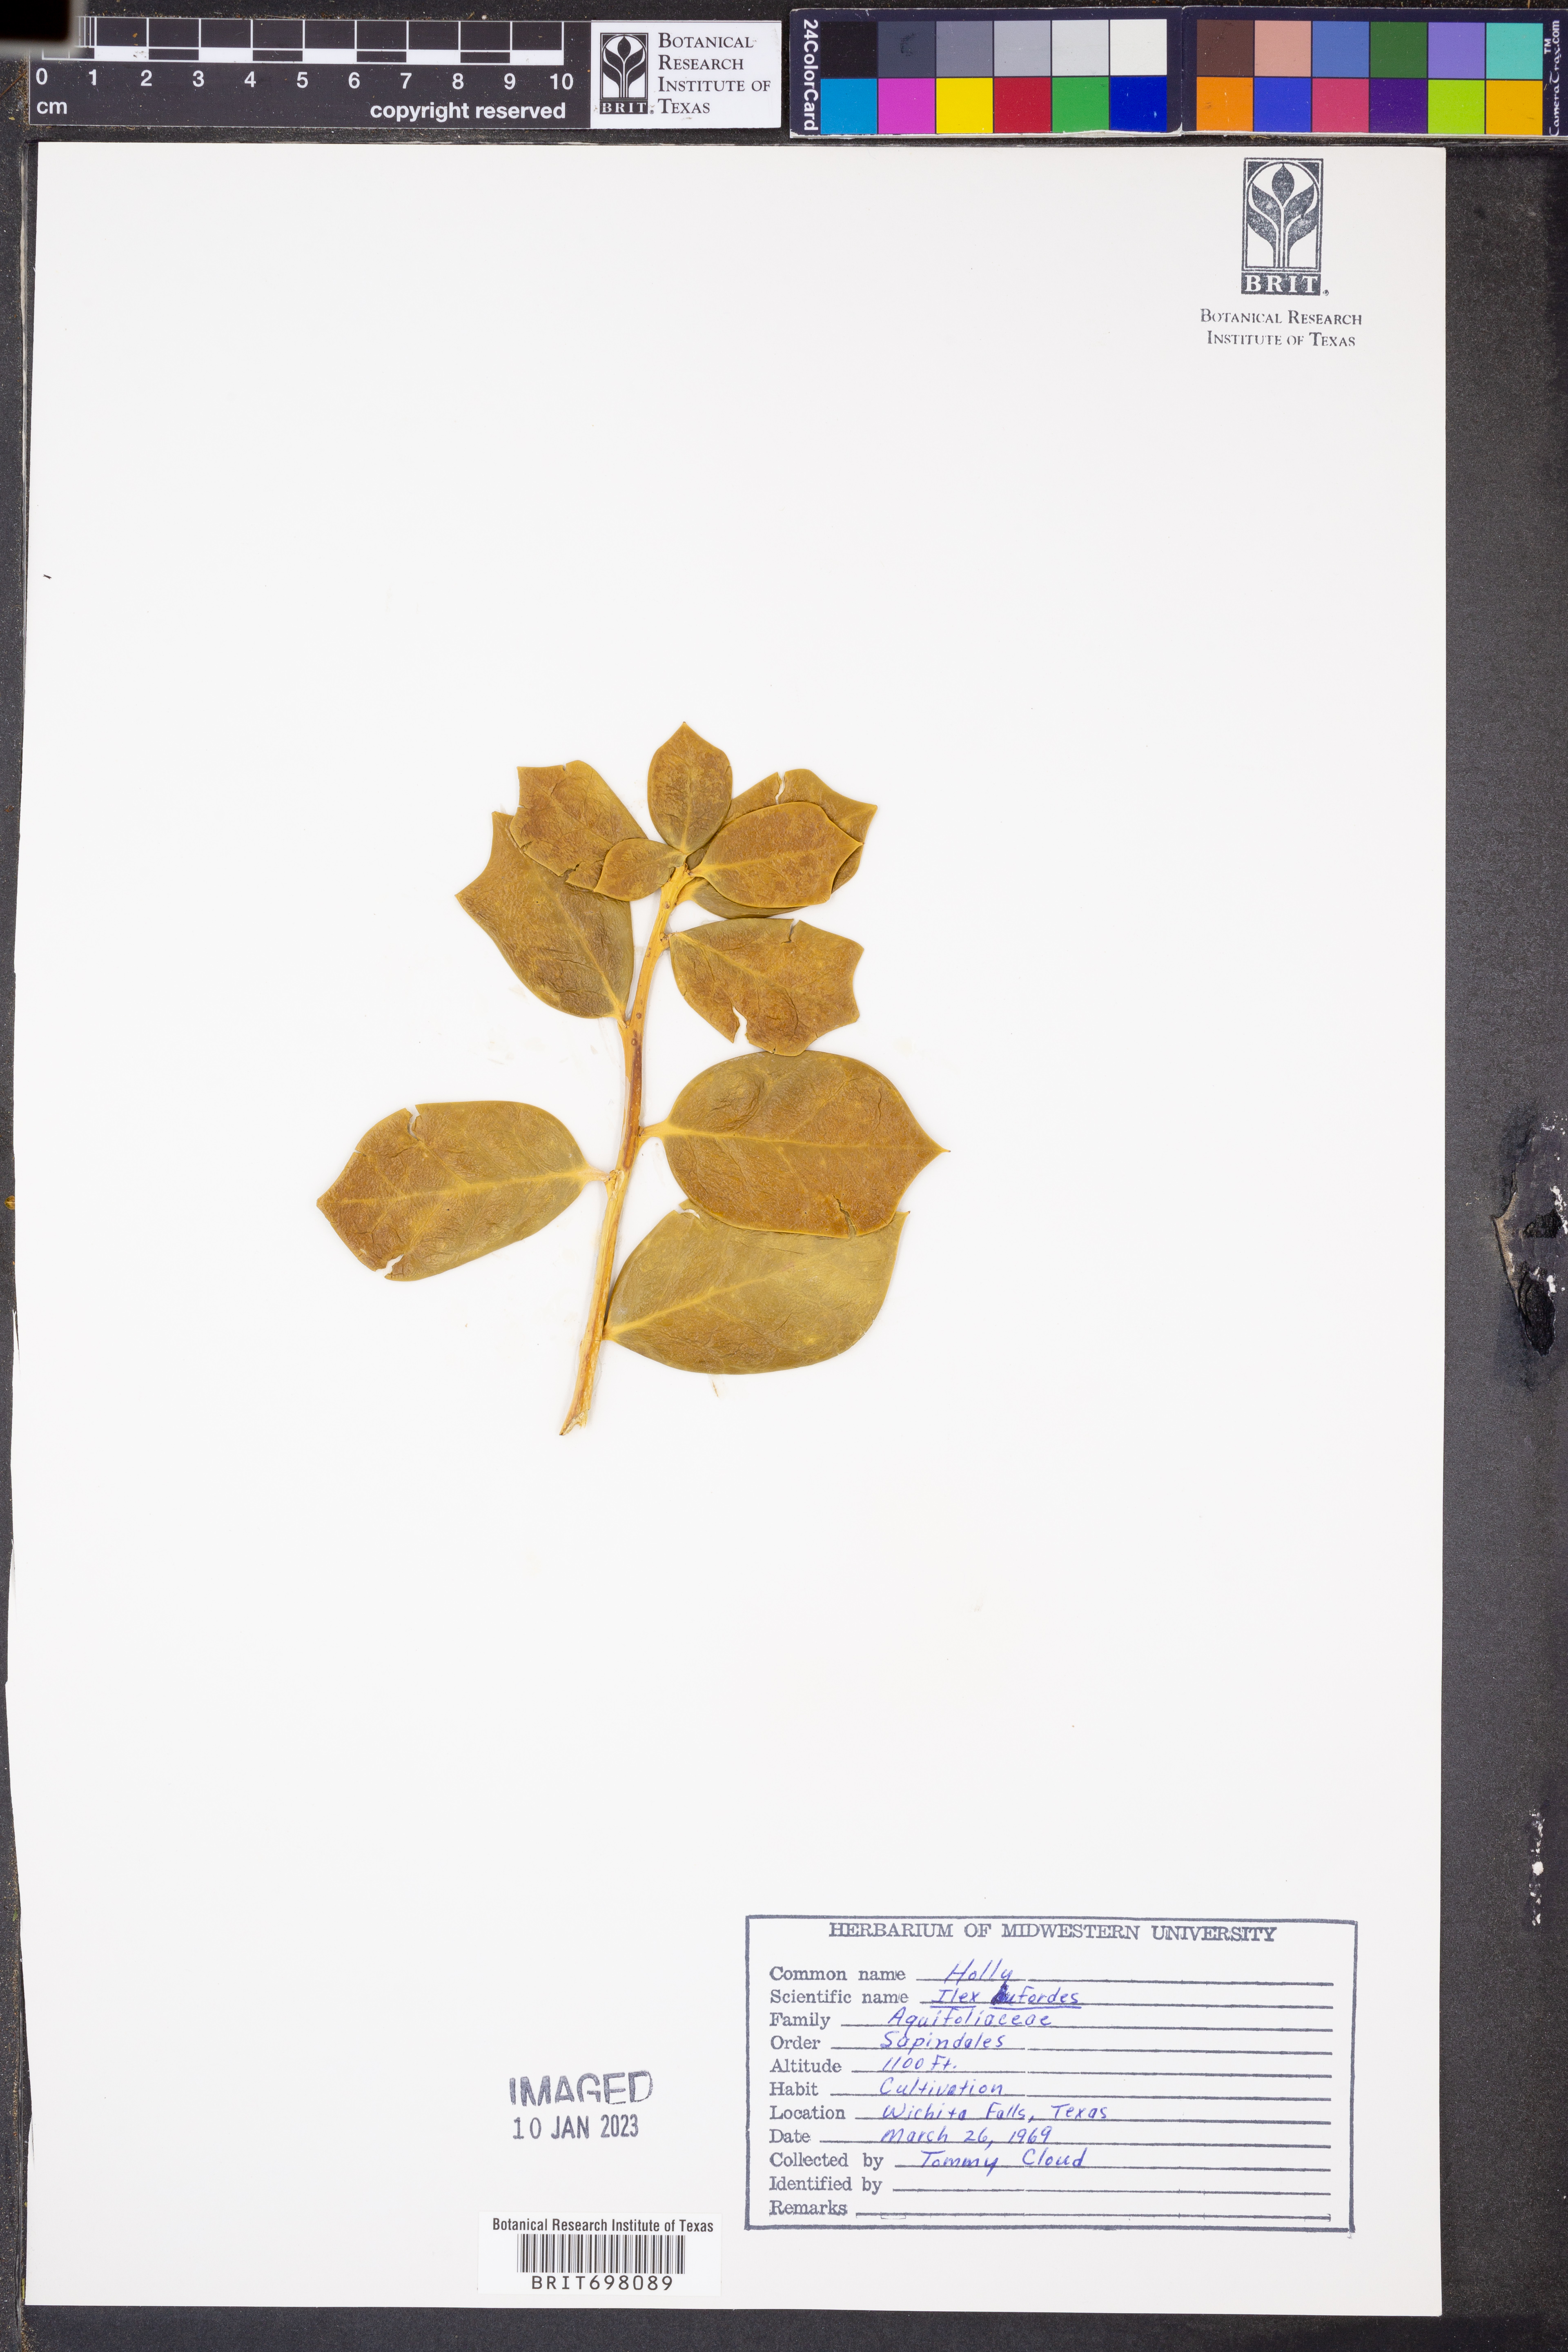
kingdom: Plantae
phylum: Tracheophyta
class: Magnoliopsida
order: Aquifoliales
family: Aquifoliaceae
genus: Ilex
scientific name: Ilex crenata
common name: Japanese holly
